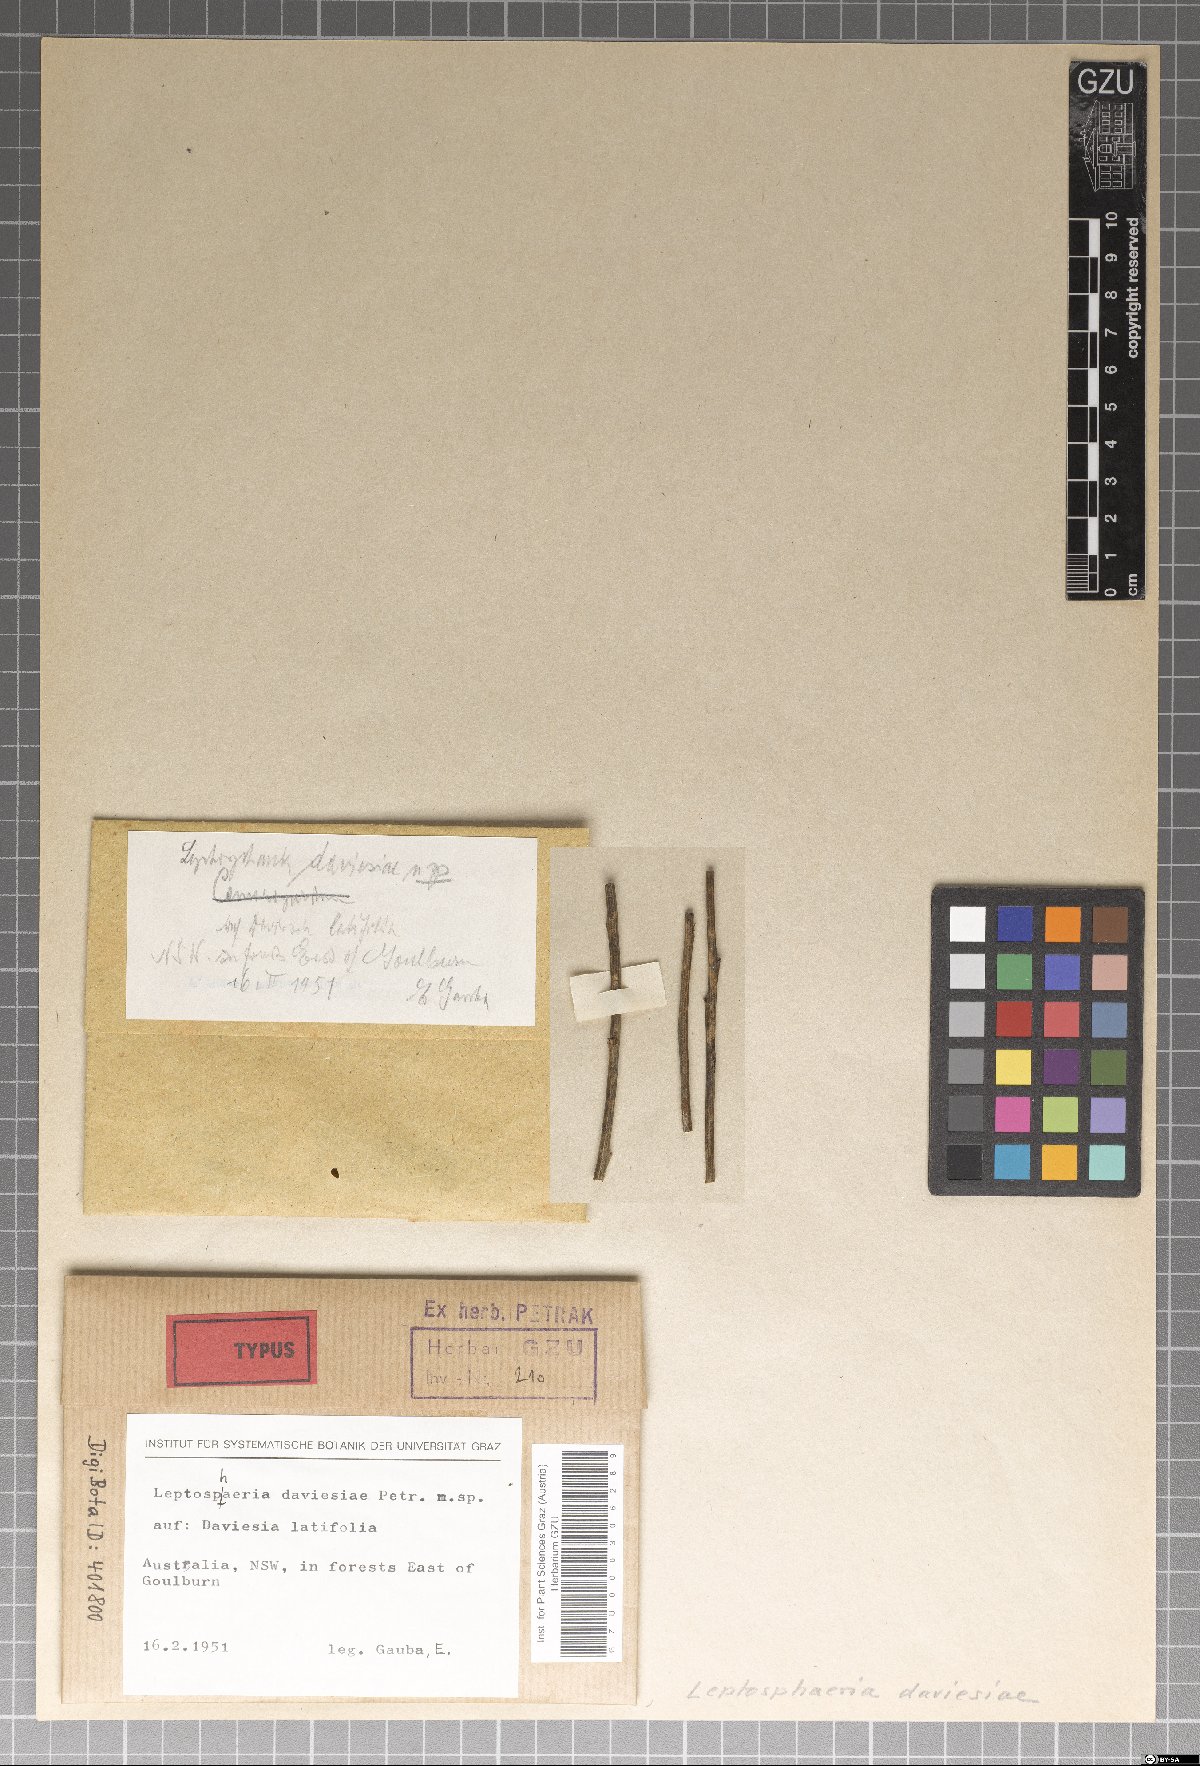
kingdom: Fungi
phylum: Ascomycota
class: Dothideomycetes
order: Pleosporales
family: Leptosphaeriaceae
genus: Leptosphaeria
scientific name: Leptosphaeria daviesiae
